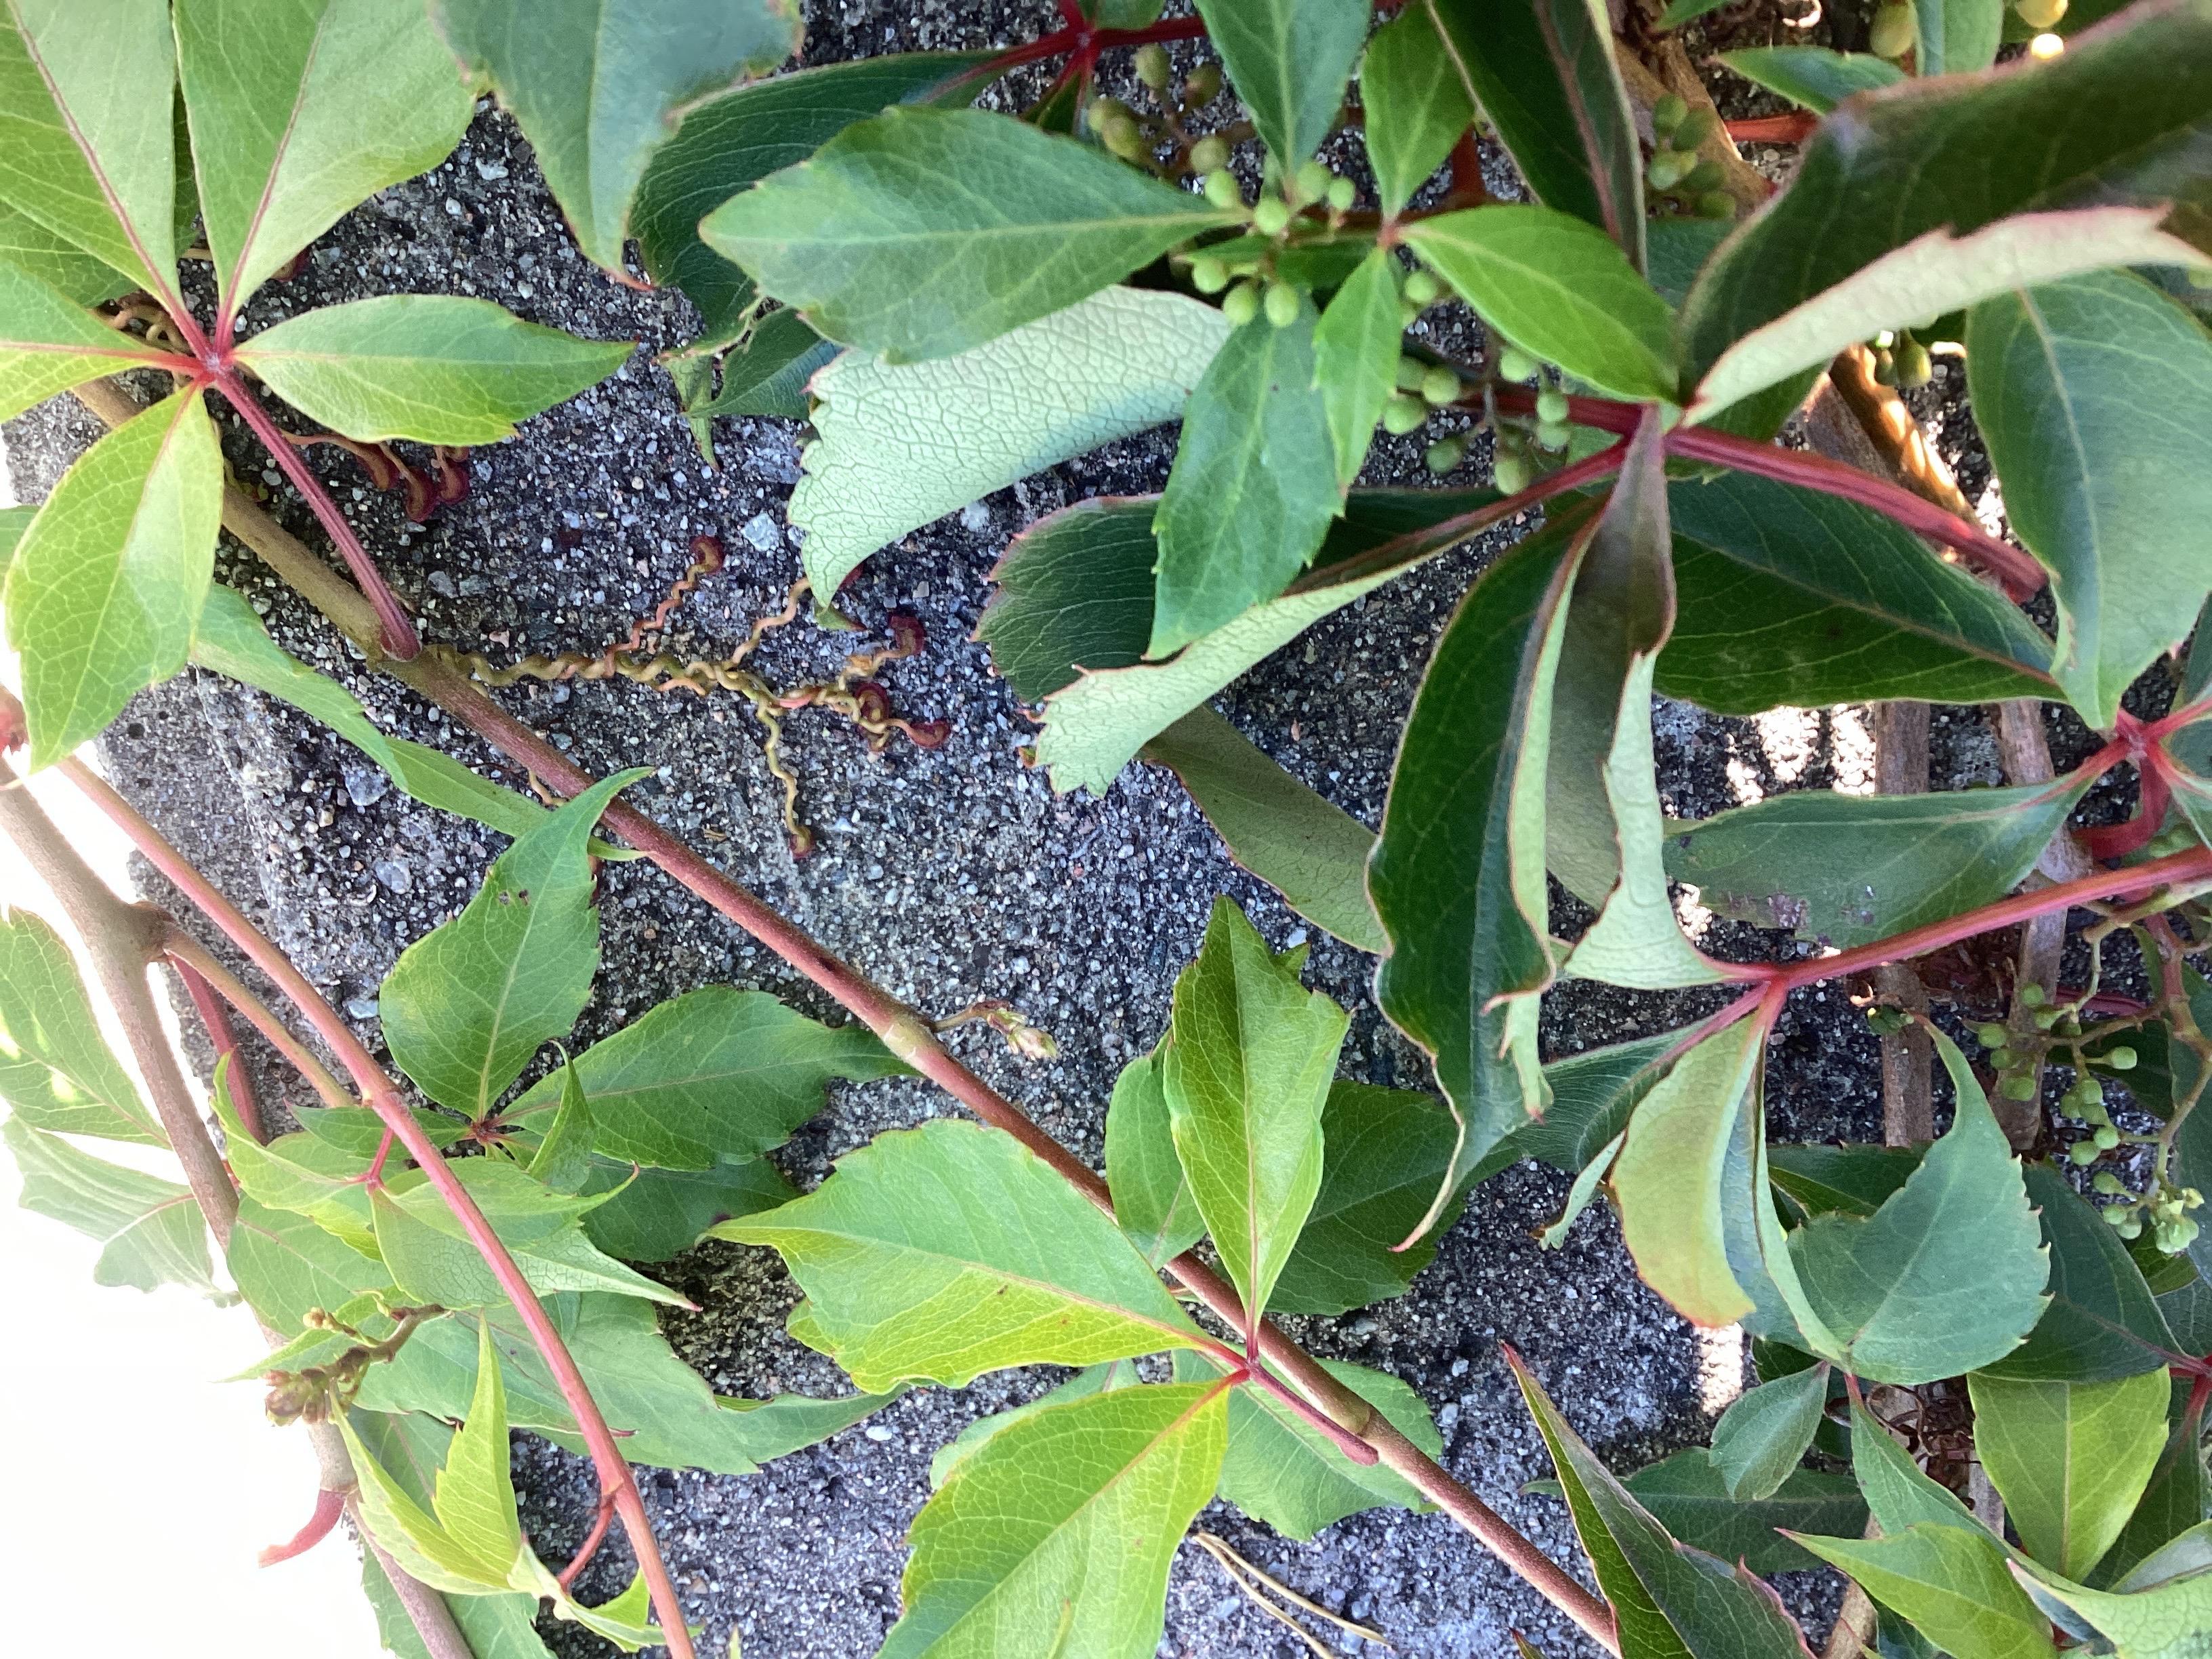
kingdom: Plantae
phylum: Tracheophyta
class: Magnoliopsida
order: Vitales
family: Vitaceae
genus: Parthenocissus
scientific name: Parthenocissus quinquefolia
